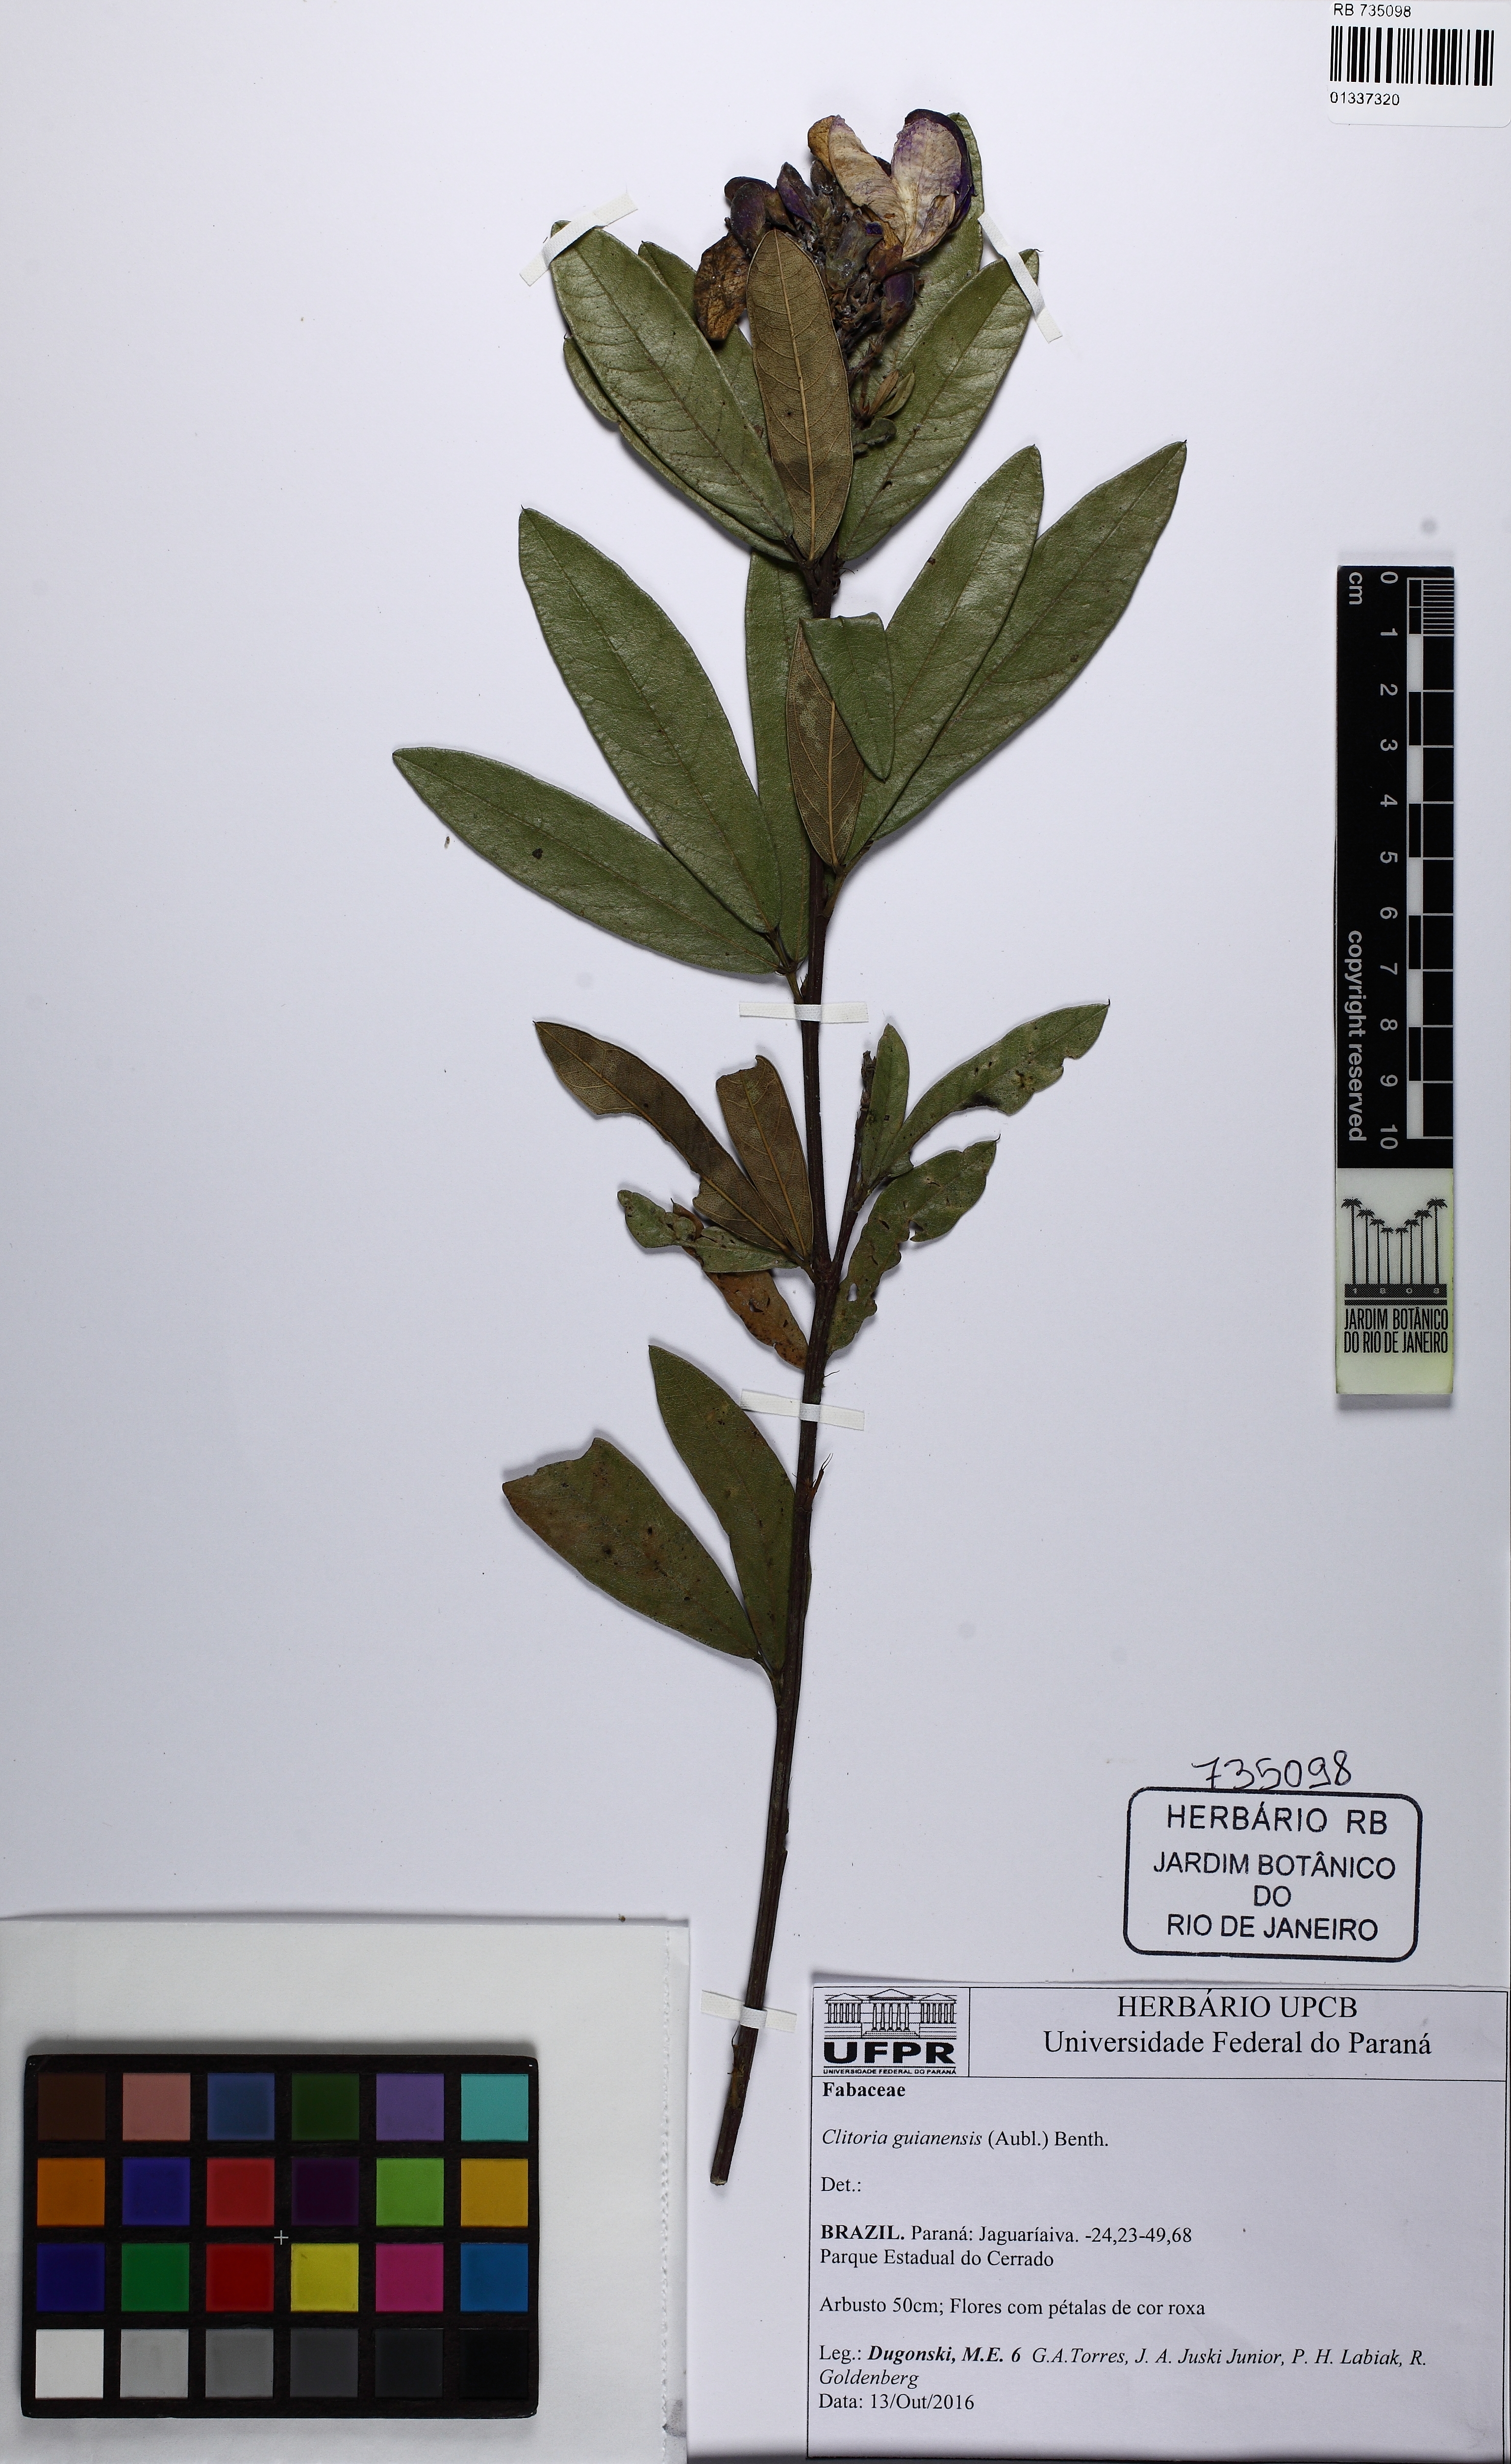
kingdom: Plantae
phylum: Tracheophyta
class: Magnoliopsida
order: Fabales
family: Fabaceae
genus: Clitoria
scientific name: Clitoria guianensis
